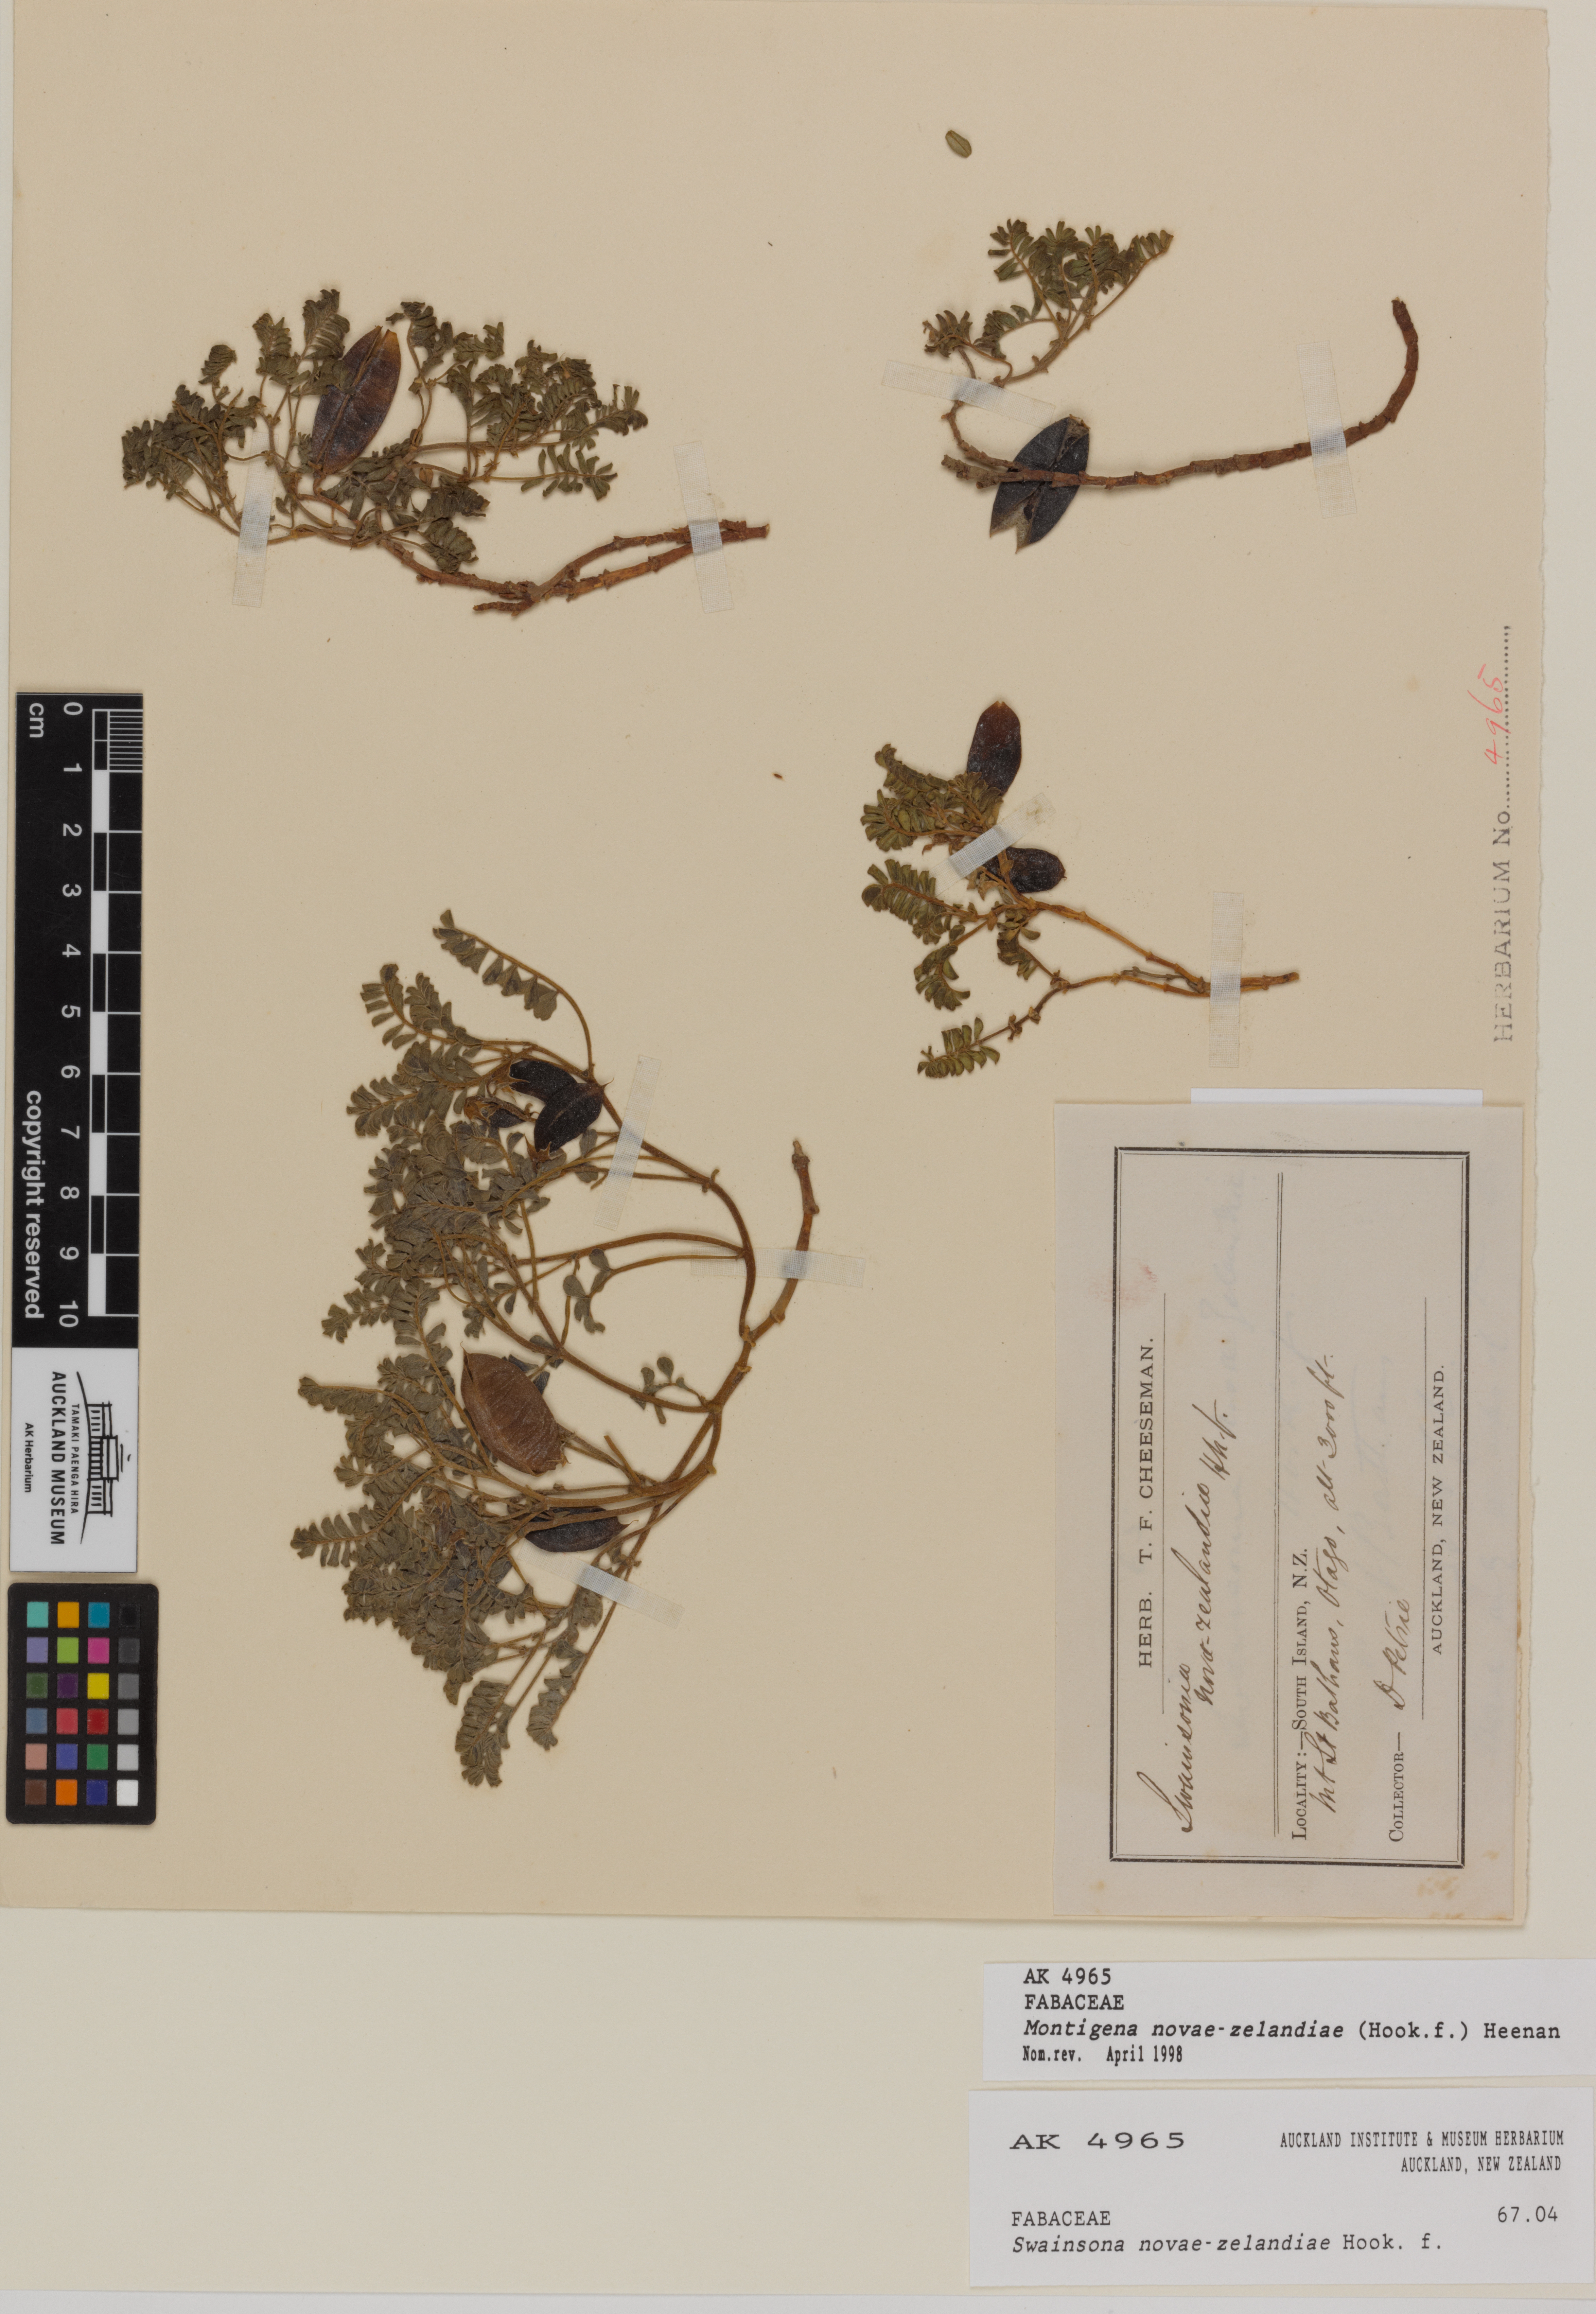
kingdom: Plantae
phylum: Tracheophyta
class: Magnoliopsida
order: Fabales
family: Fabaceae
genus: Montigena
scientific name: Montigena novae-zelandiae
